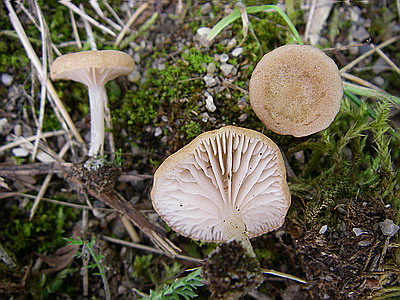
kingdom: Fungi
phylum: Basidiomycota
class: Agaricomycetes
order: Agaricales
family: Entolomataceae
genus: Entoloma
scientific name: Entoloma neglectum
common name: bleg rødblad
